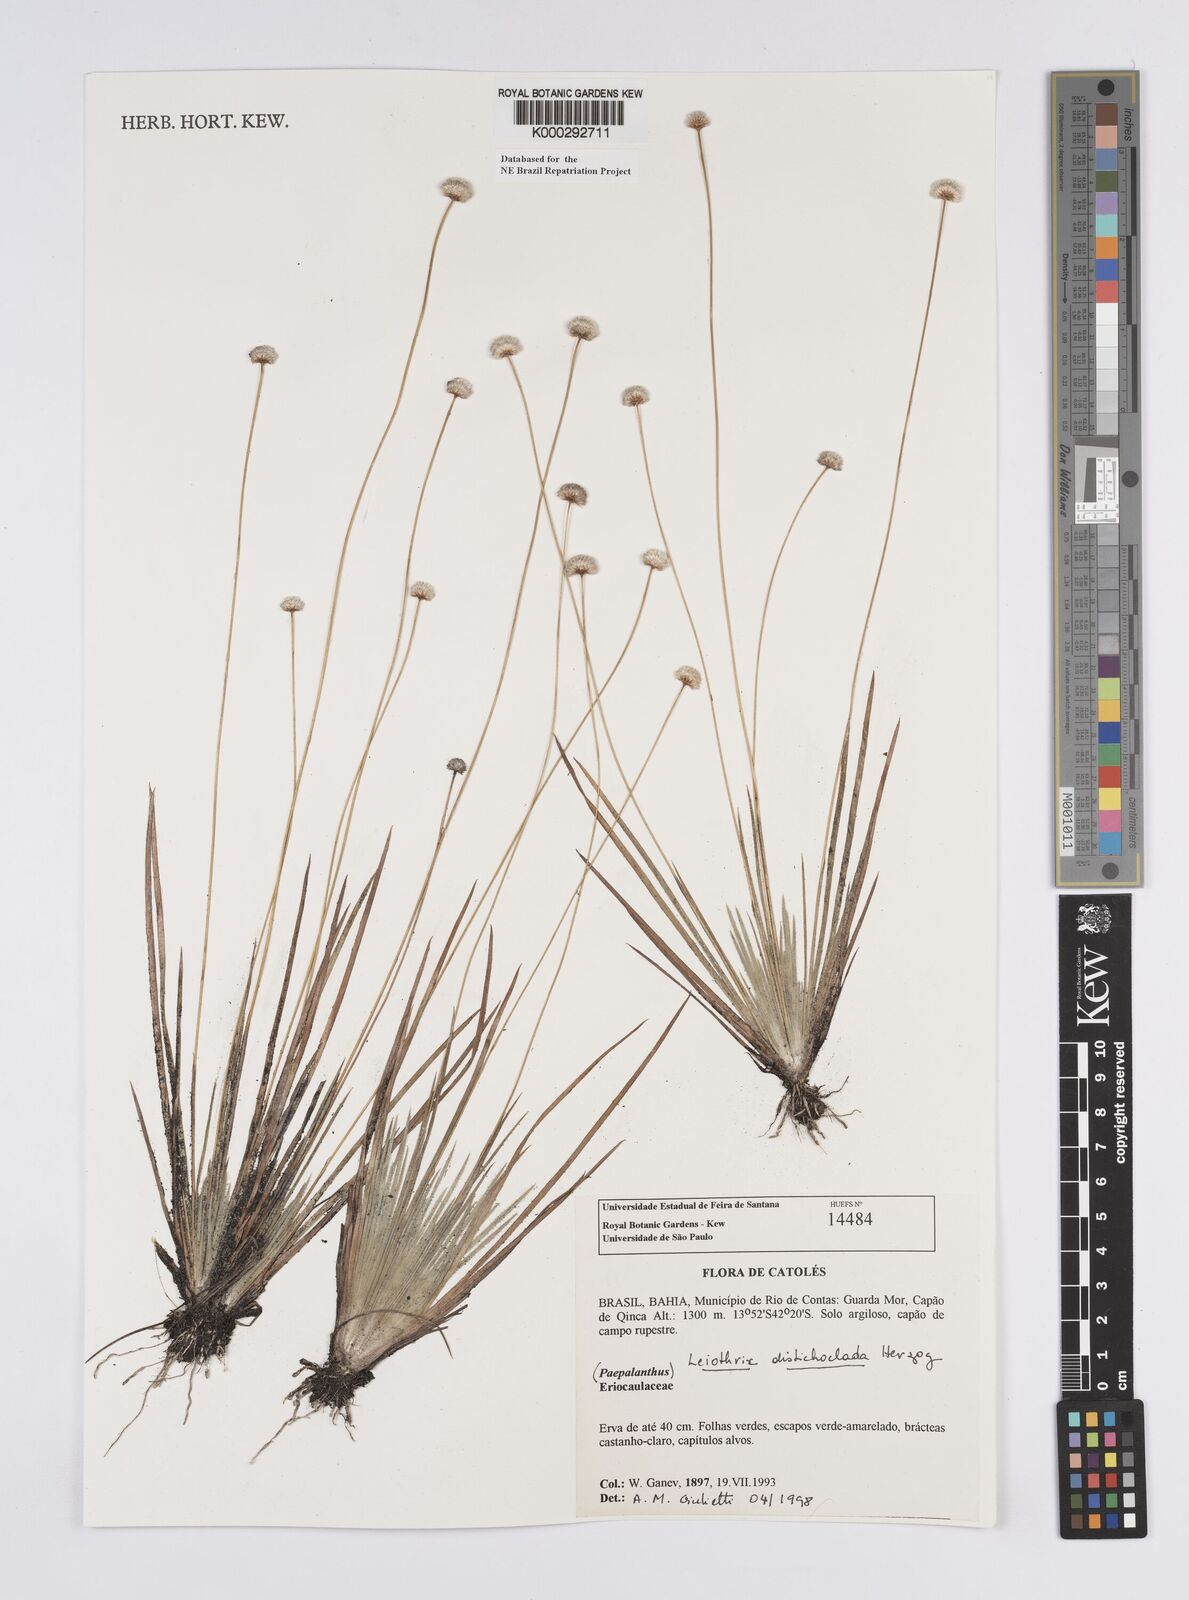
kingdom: Plantae
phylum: Tracheophyta
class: Liliopsida
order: Poales
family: Eriocaulaceae
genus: Leiothrix
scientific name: Leiothrix distichoclada
